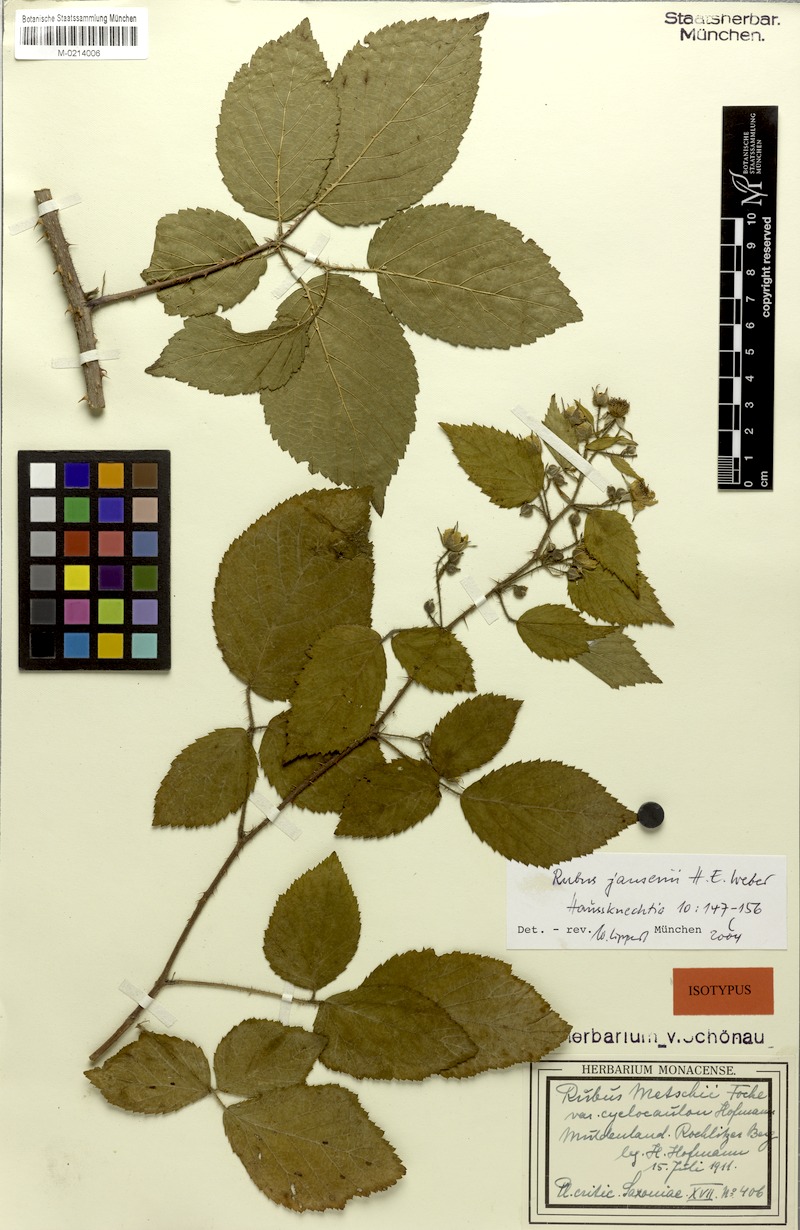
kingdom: Plantae
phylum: Tracheophyta
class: Magnoliopsida
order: Rosales
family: Rosaceae
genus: Rubus
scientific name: Rubus josholubii
